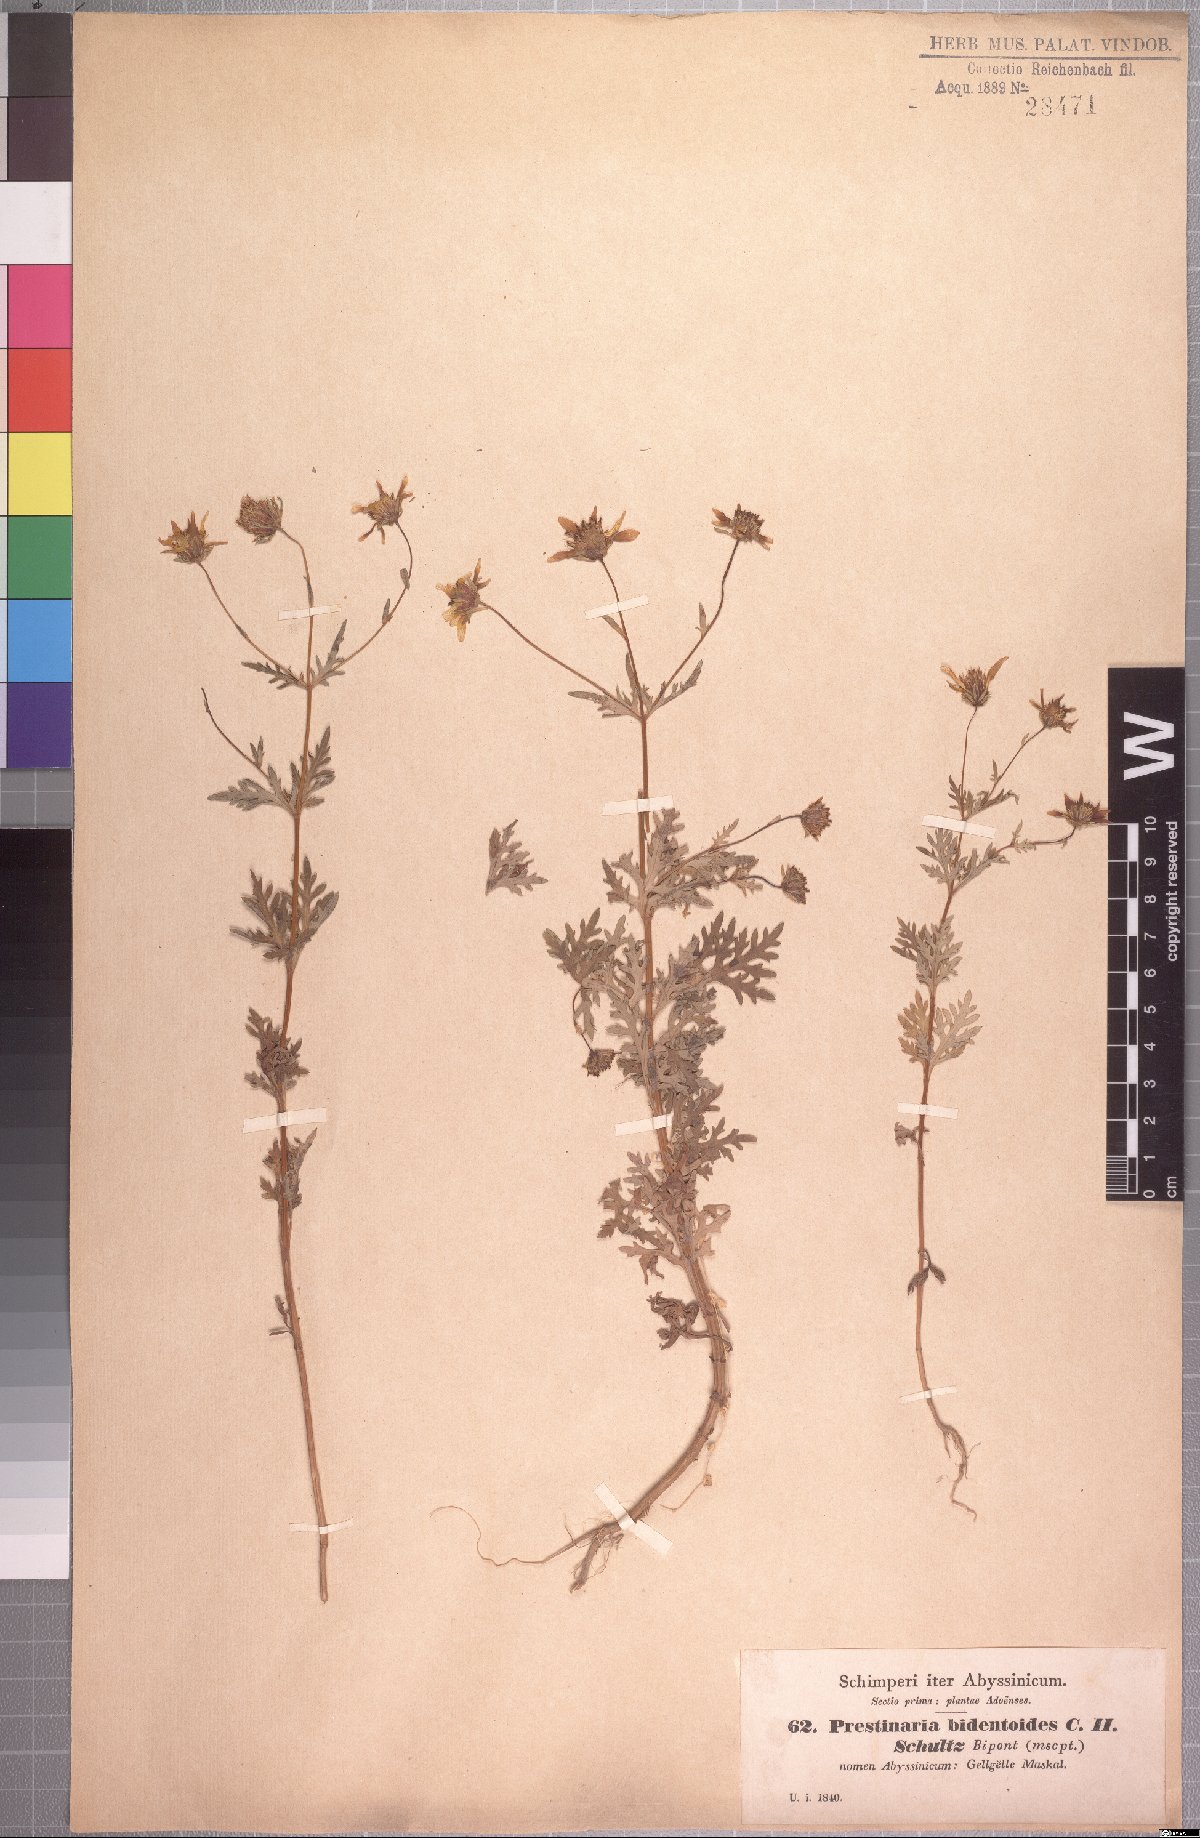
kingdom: Plantae
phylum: Tracheophyta
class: Magnoliopsida
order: Asterales
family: Asteraceae
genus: Bidens
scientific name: Bidens prestinaria
